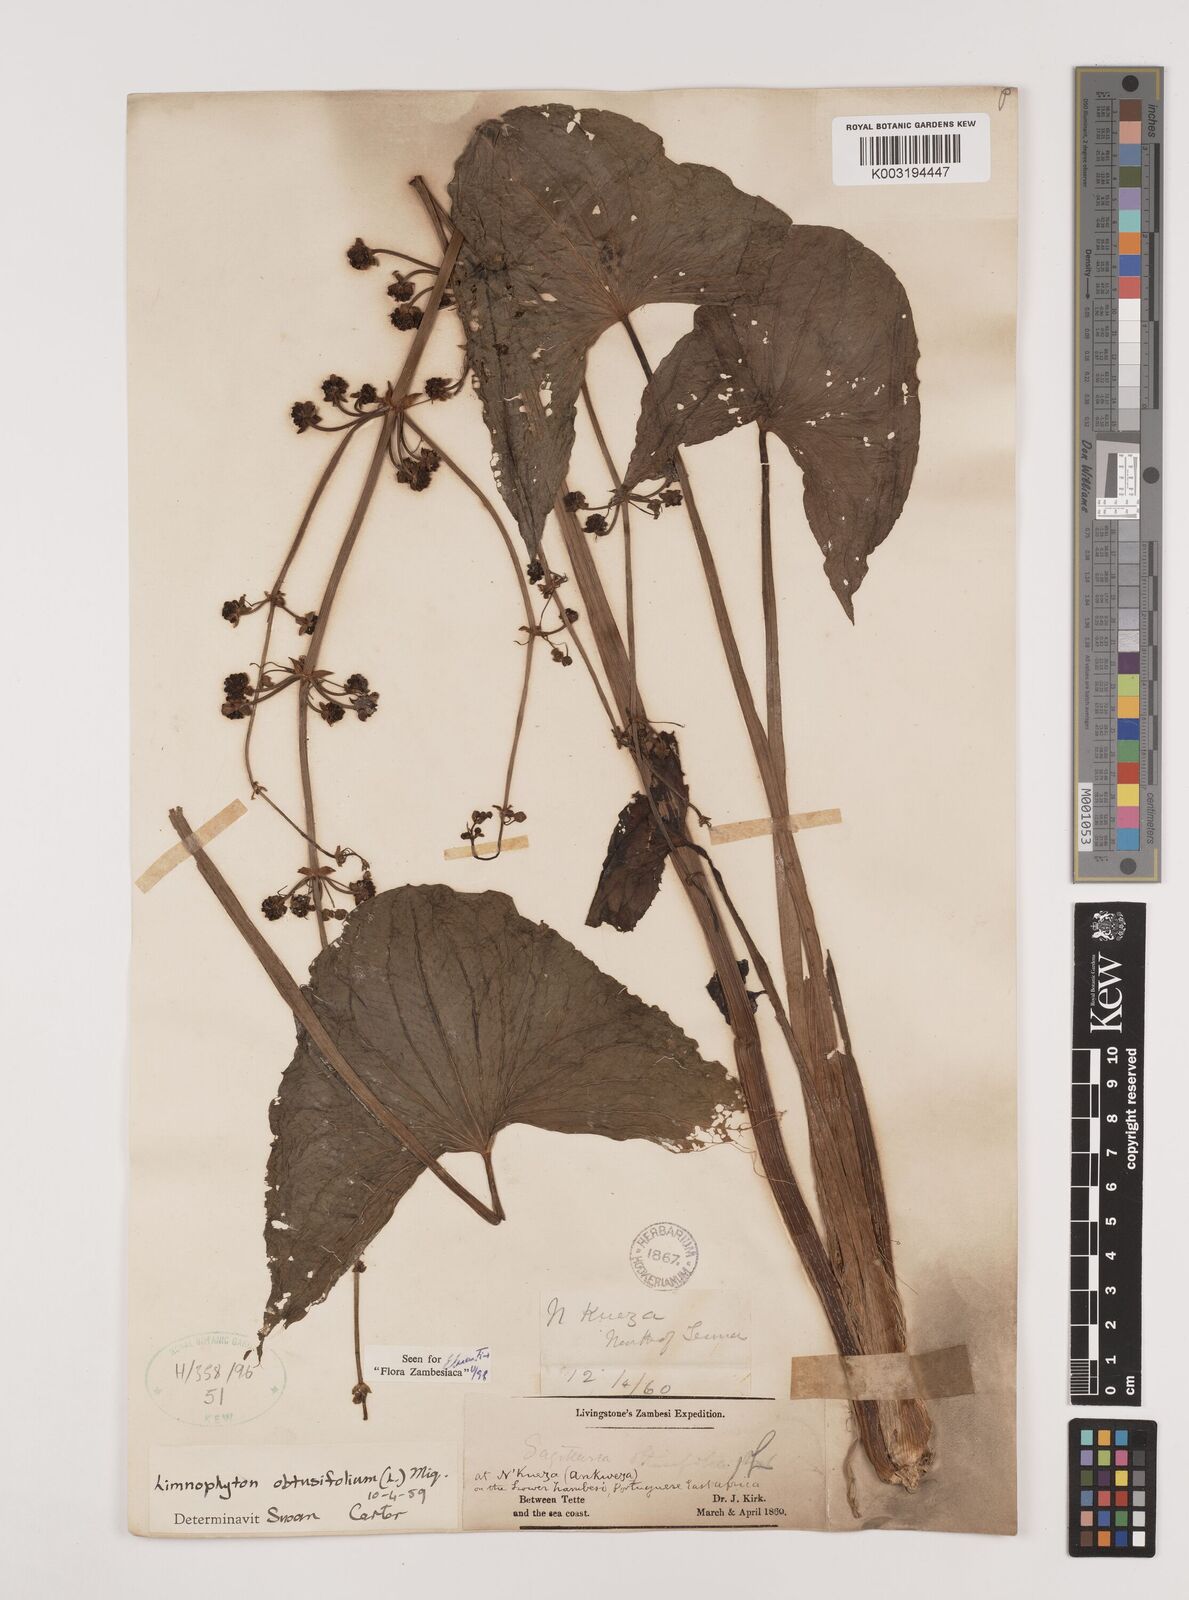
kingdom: Plantae
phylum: Tracheophyta
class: Liliopsida
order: Alismatales
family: Alismataceae
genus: Limnophyton
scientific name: Limnophyton obtusifolium
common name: Arrow head
